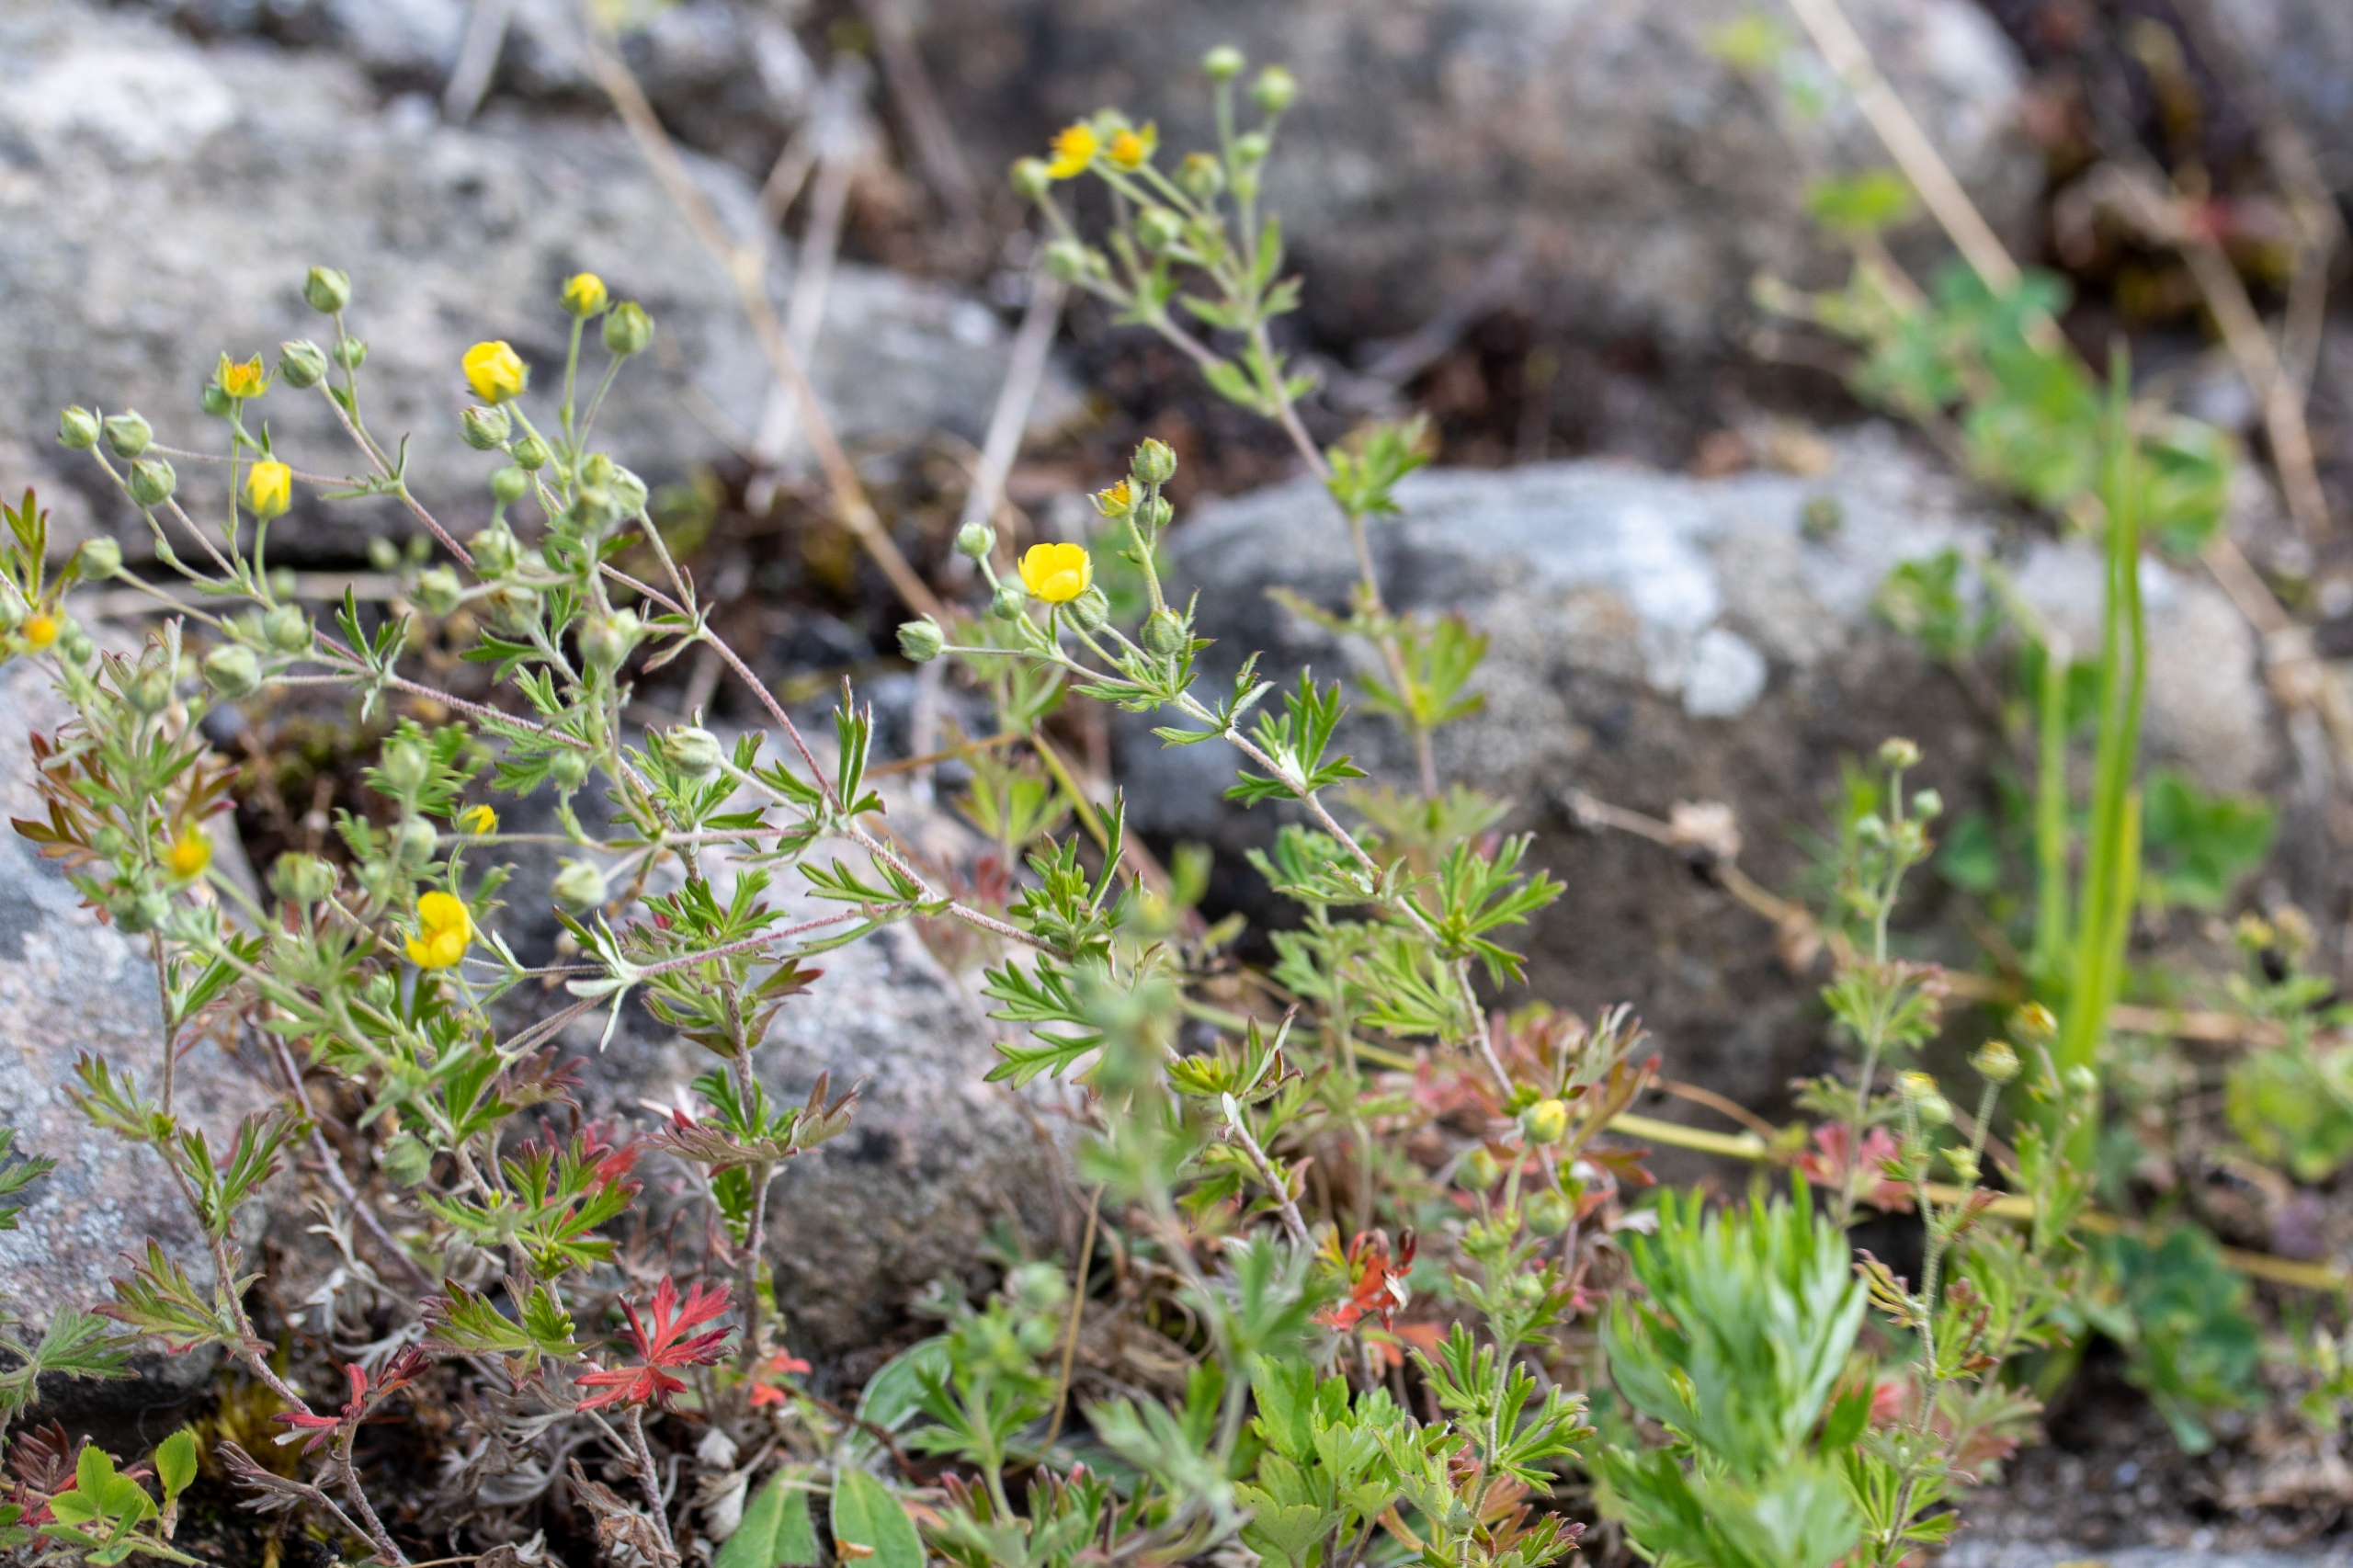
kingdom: Plantae
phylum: Tracheophyta
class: Magnoliopsida
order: Rosales
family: Rosaceae
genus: Potentilla
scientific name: Potentilla argentea
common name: Sølv-potentil
